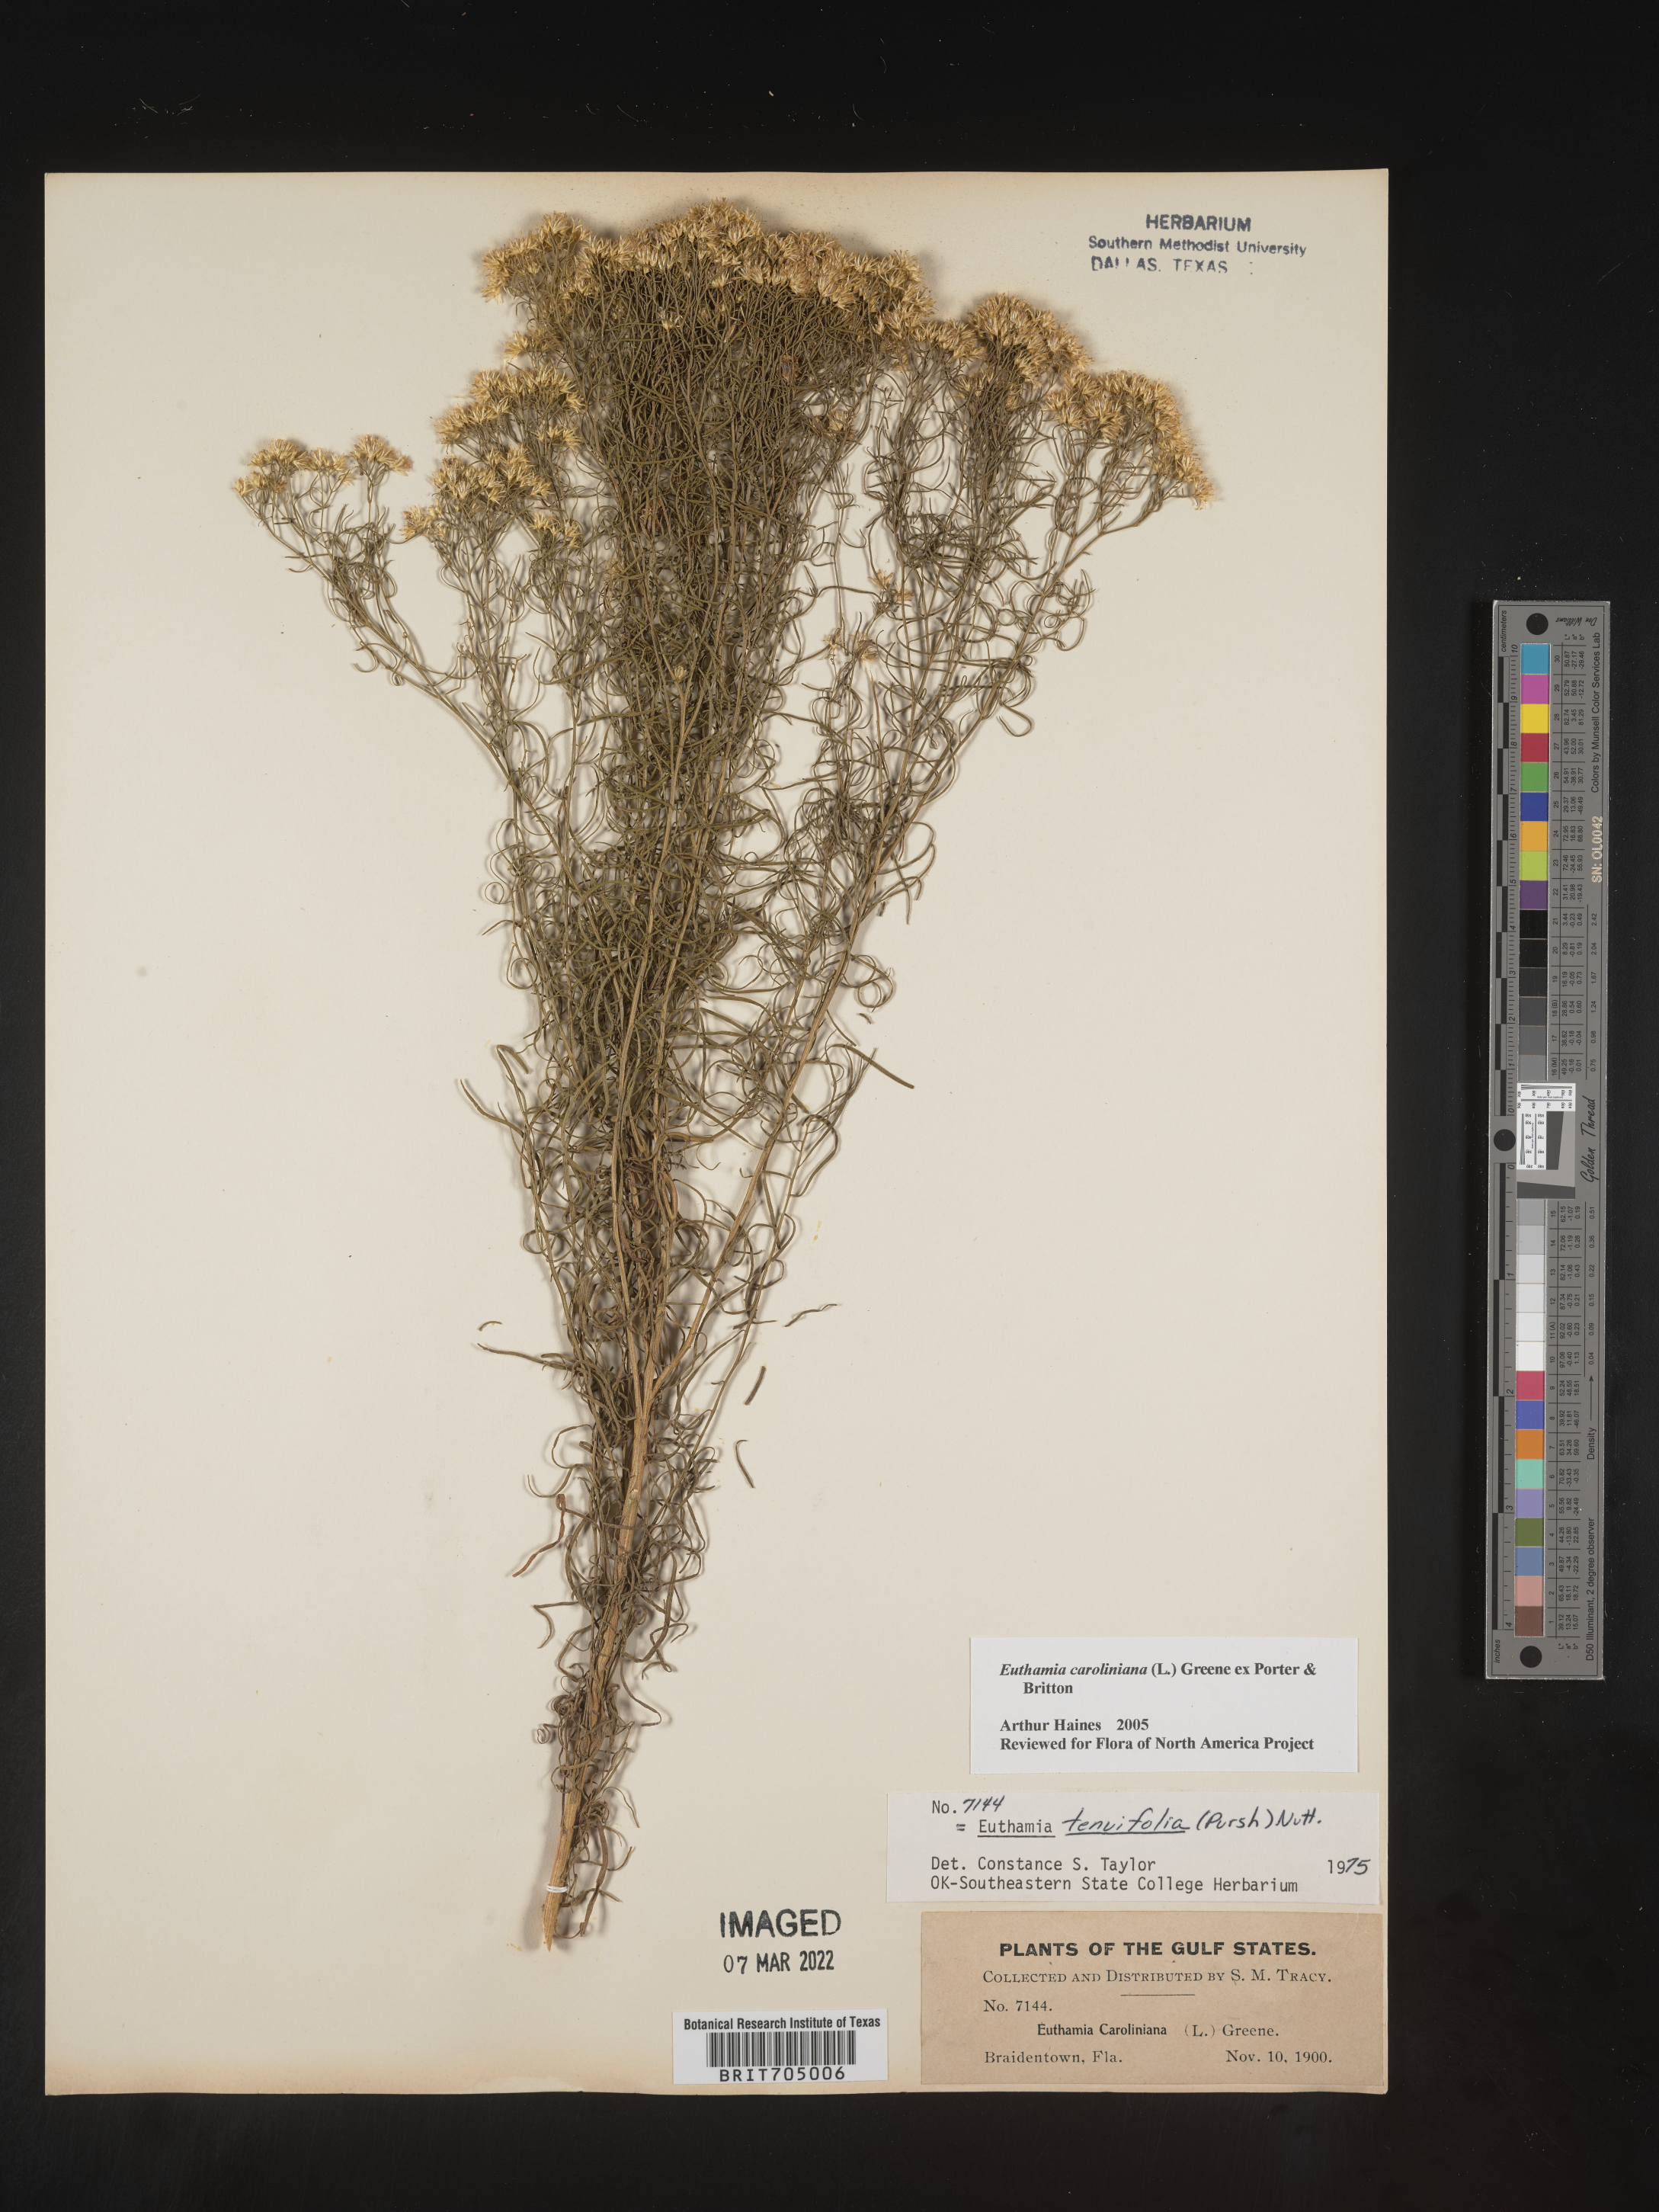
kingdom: Plantae
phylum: Tracheophyta
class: Magnoliopsida
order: Asterales
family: Asteraceae
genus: Euthamia
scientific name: Euthamia caroliniana
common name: Coastal plain goldentop
